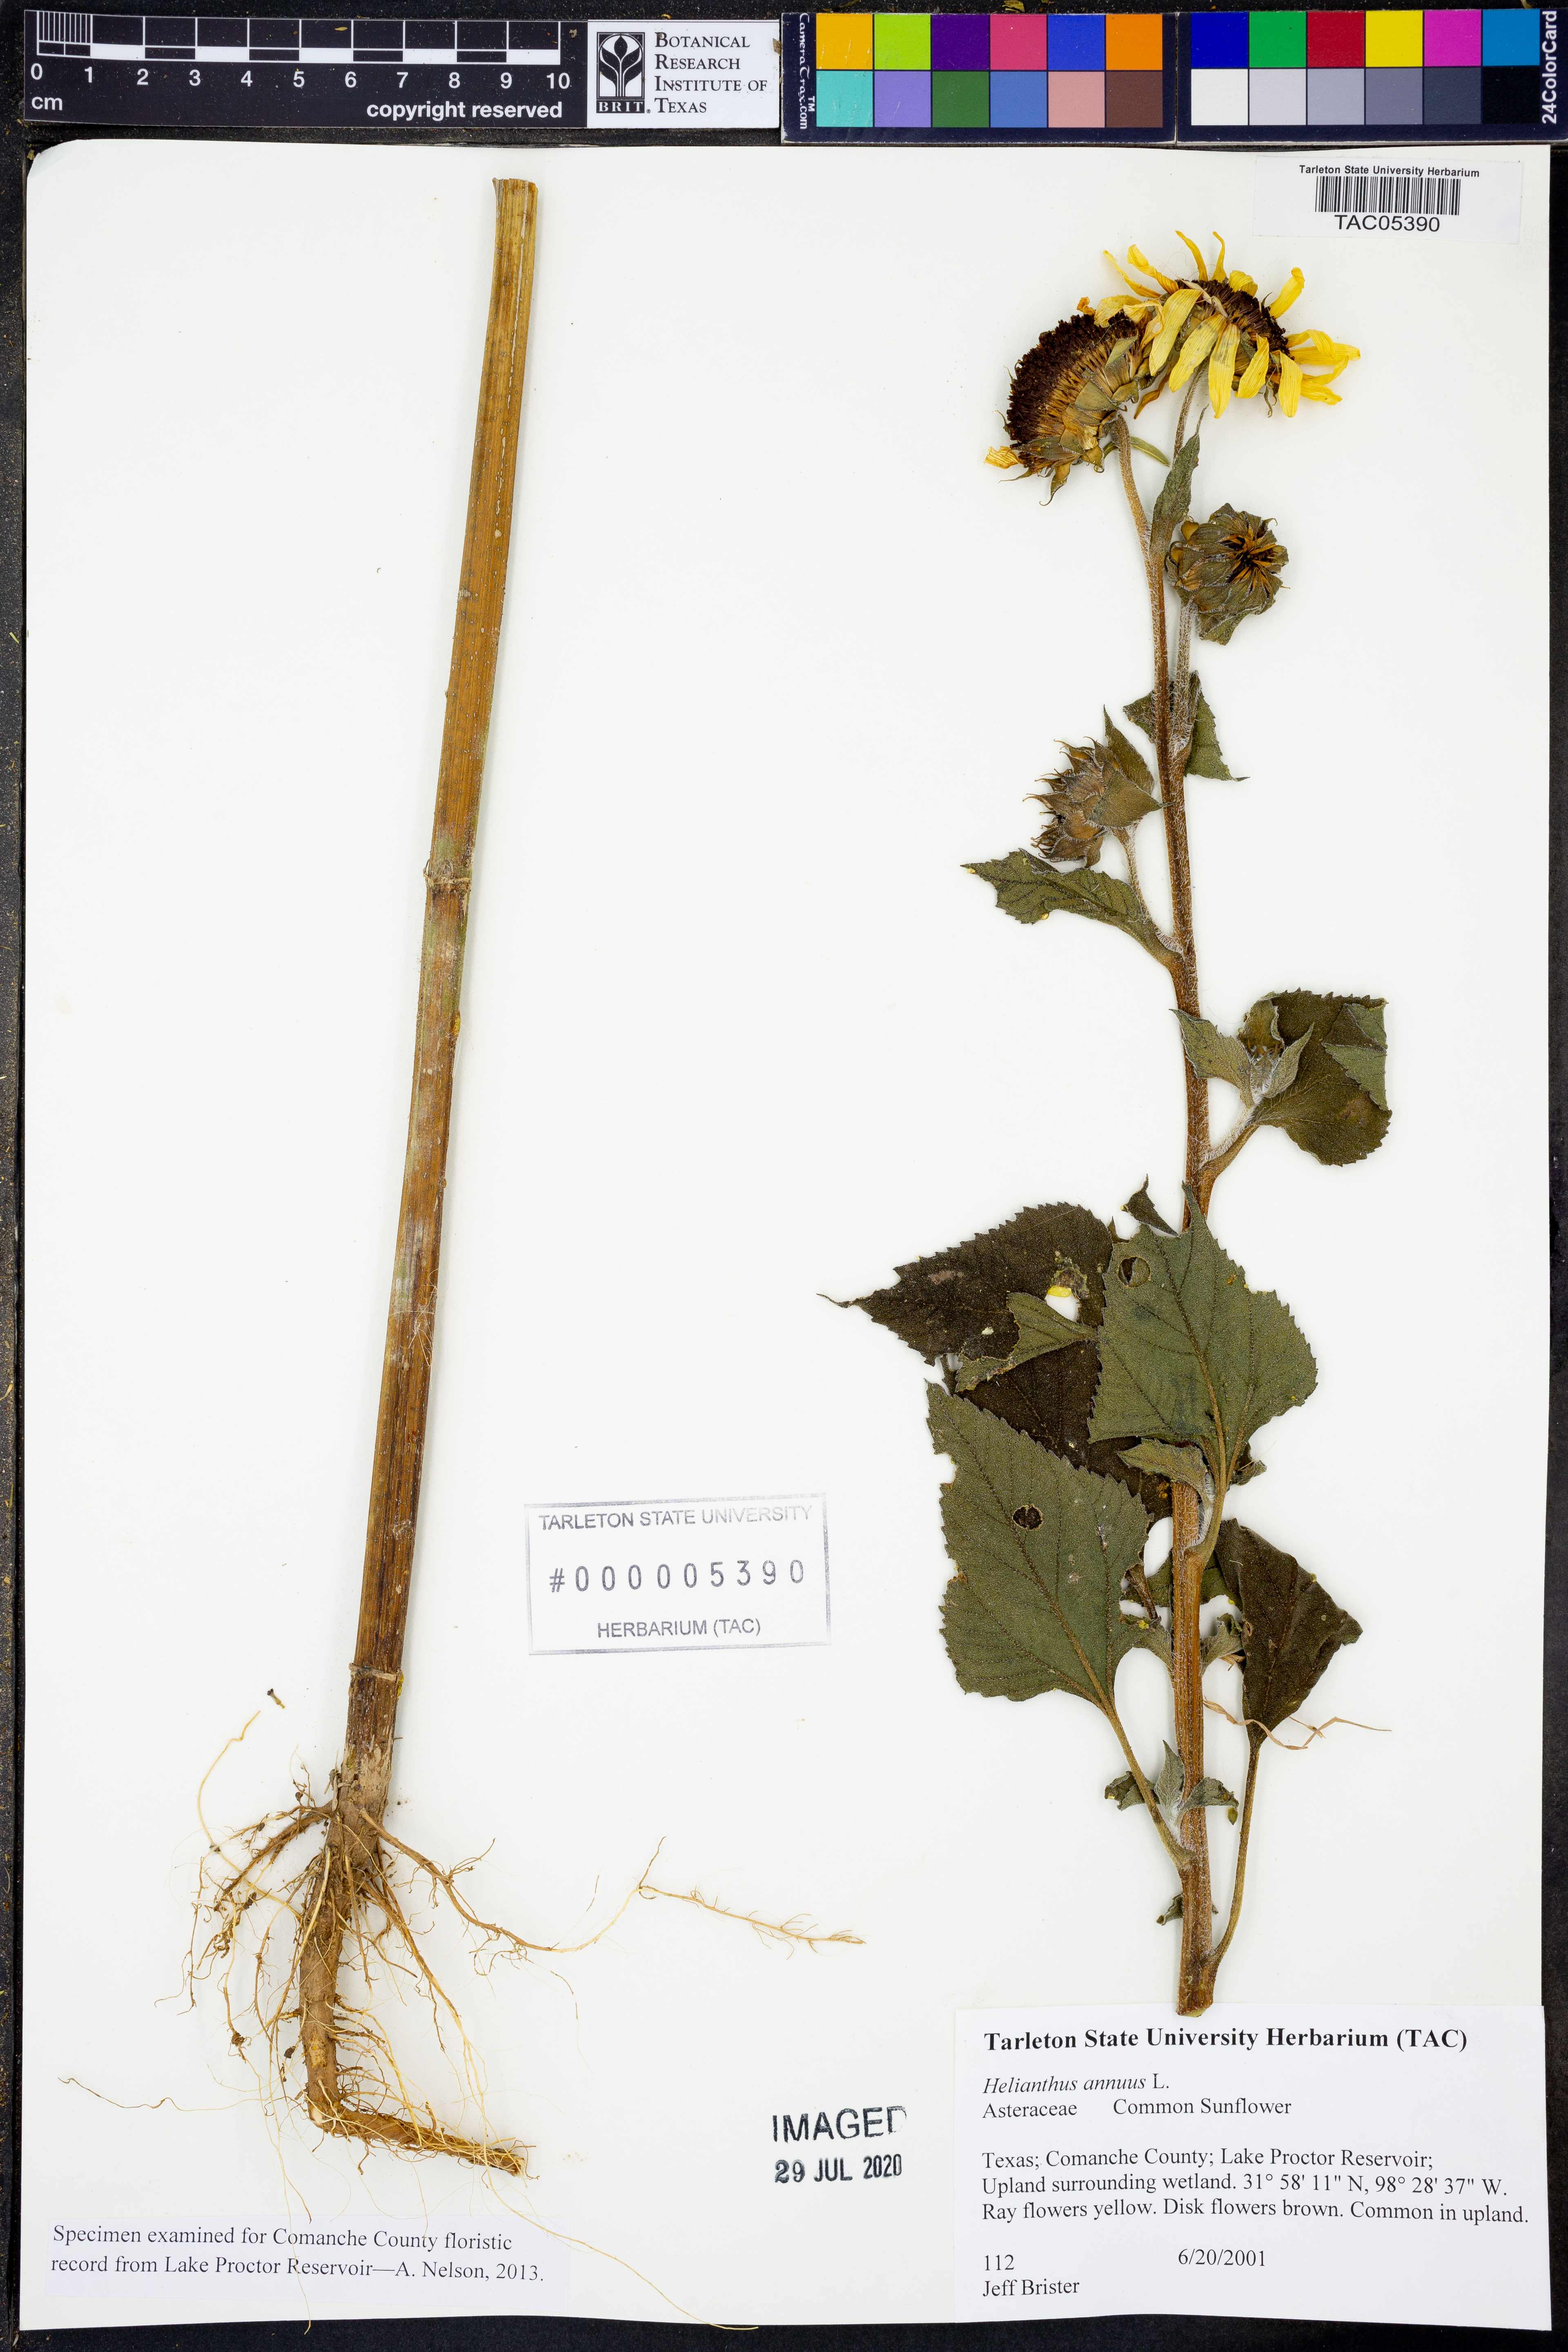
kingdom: Plantae
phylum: Tracheophyta
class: Magnoliopsida
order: Asterales
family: Asteraceae
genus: Helianthus
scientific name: Helianthus annuus
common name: Sunflower
